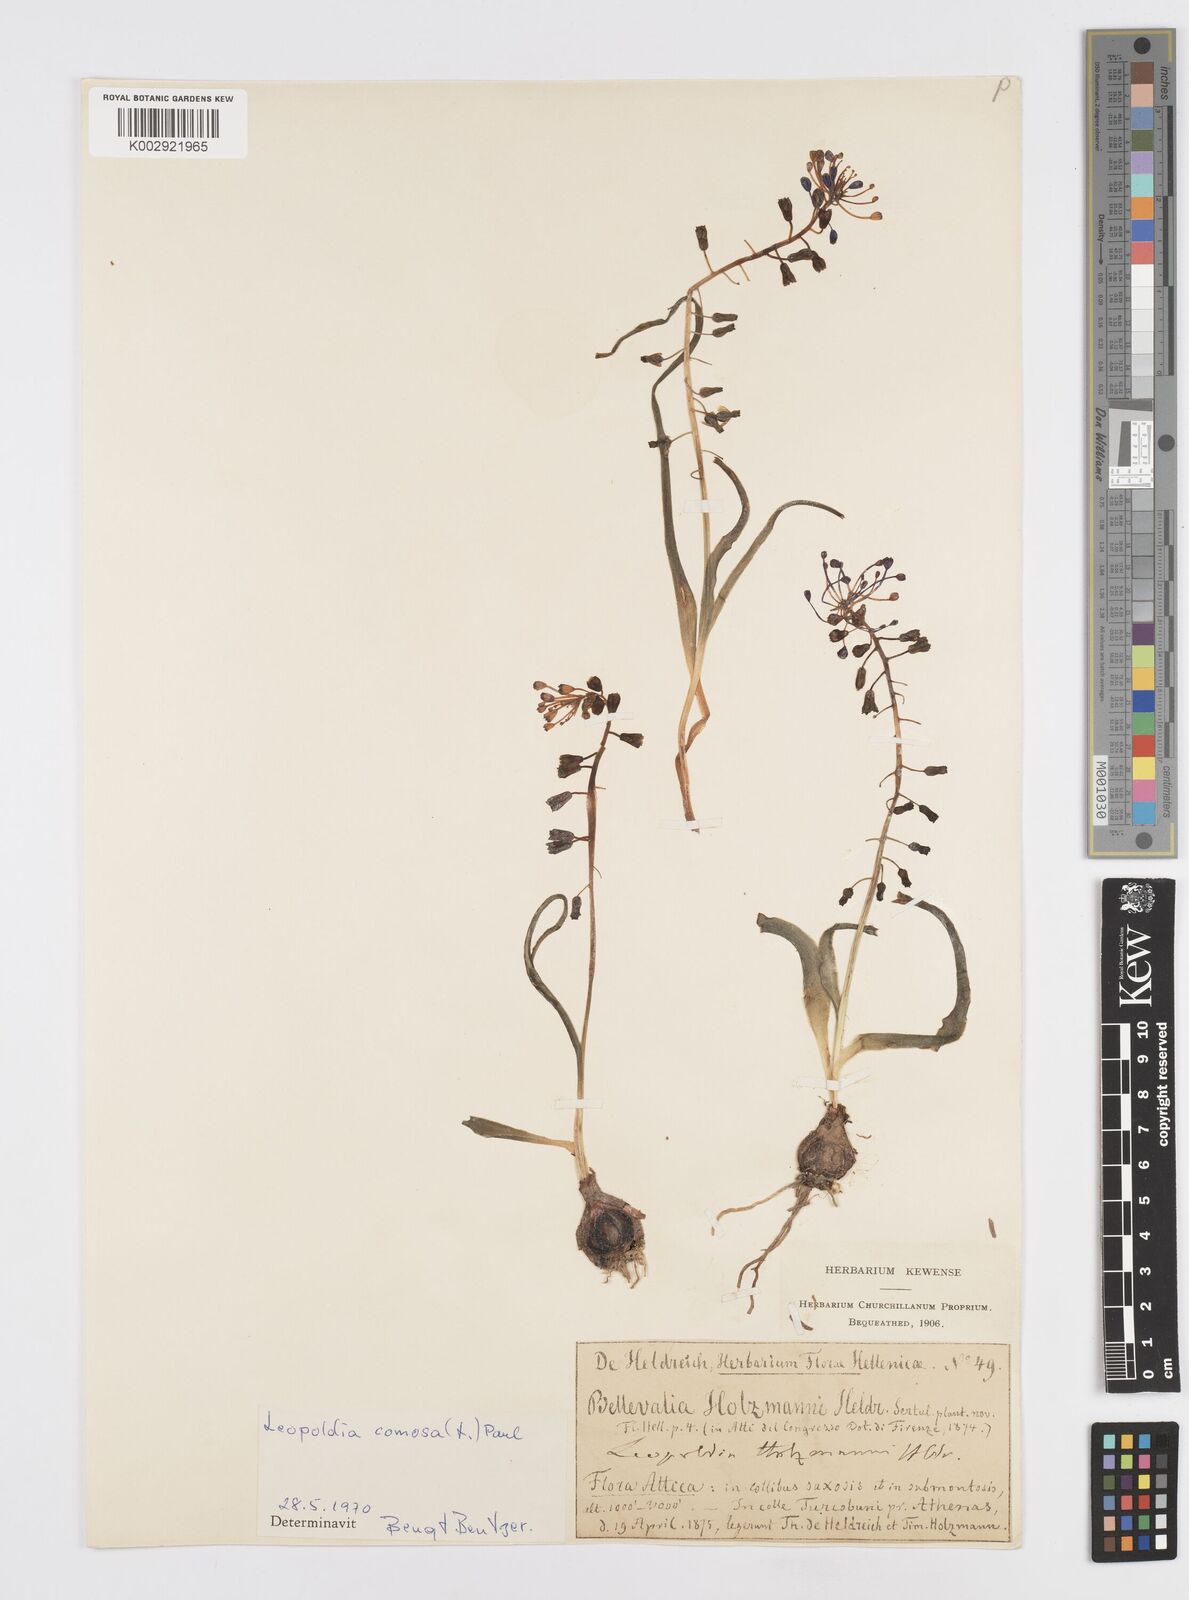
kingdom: Plantae
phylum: Tracheophyta
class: Liliopsida
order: Asparagales
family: Asparagaceae
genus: Muscari
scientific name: Muscari comosum
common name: Tassel hyacinth
